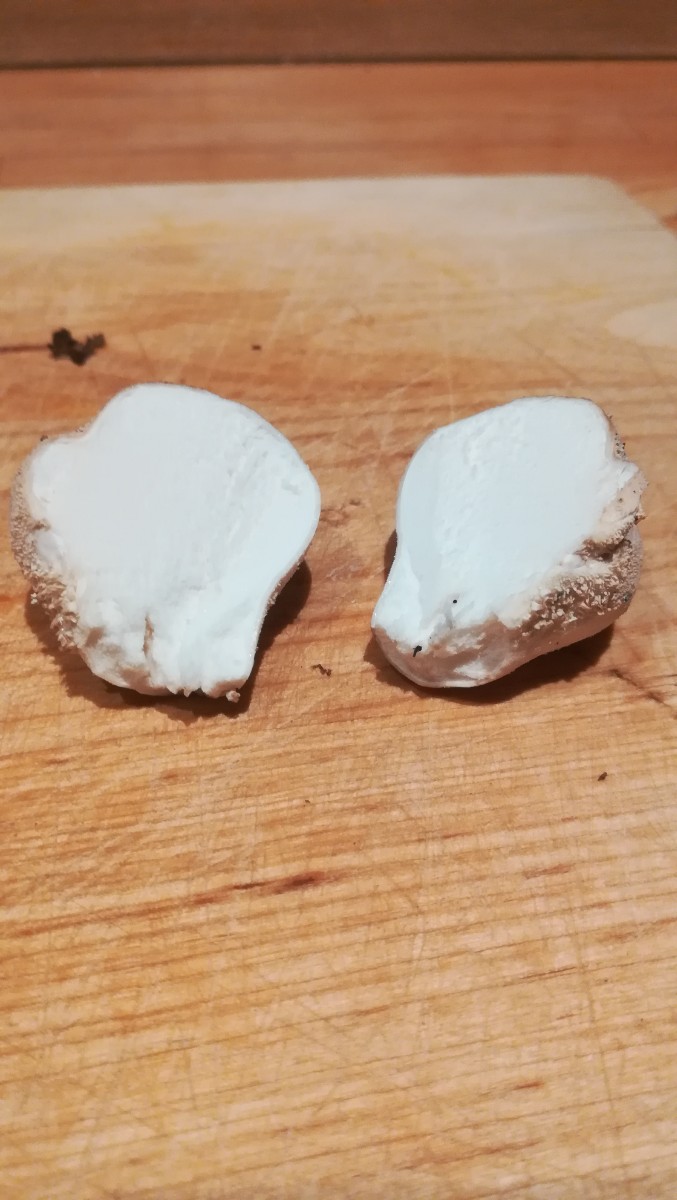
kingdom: Fungi
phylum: Basidiomycota
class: Agaricomycetes
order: Agaricales
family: Agaricaceae
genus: Lycoperdon
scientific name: Lycoperdon
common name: støvbold
